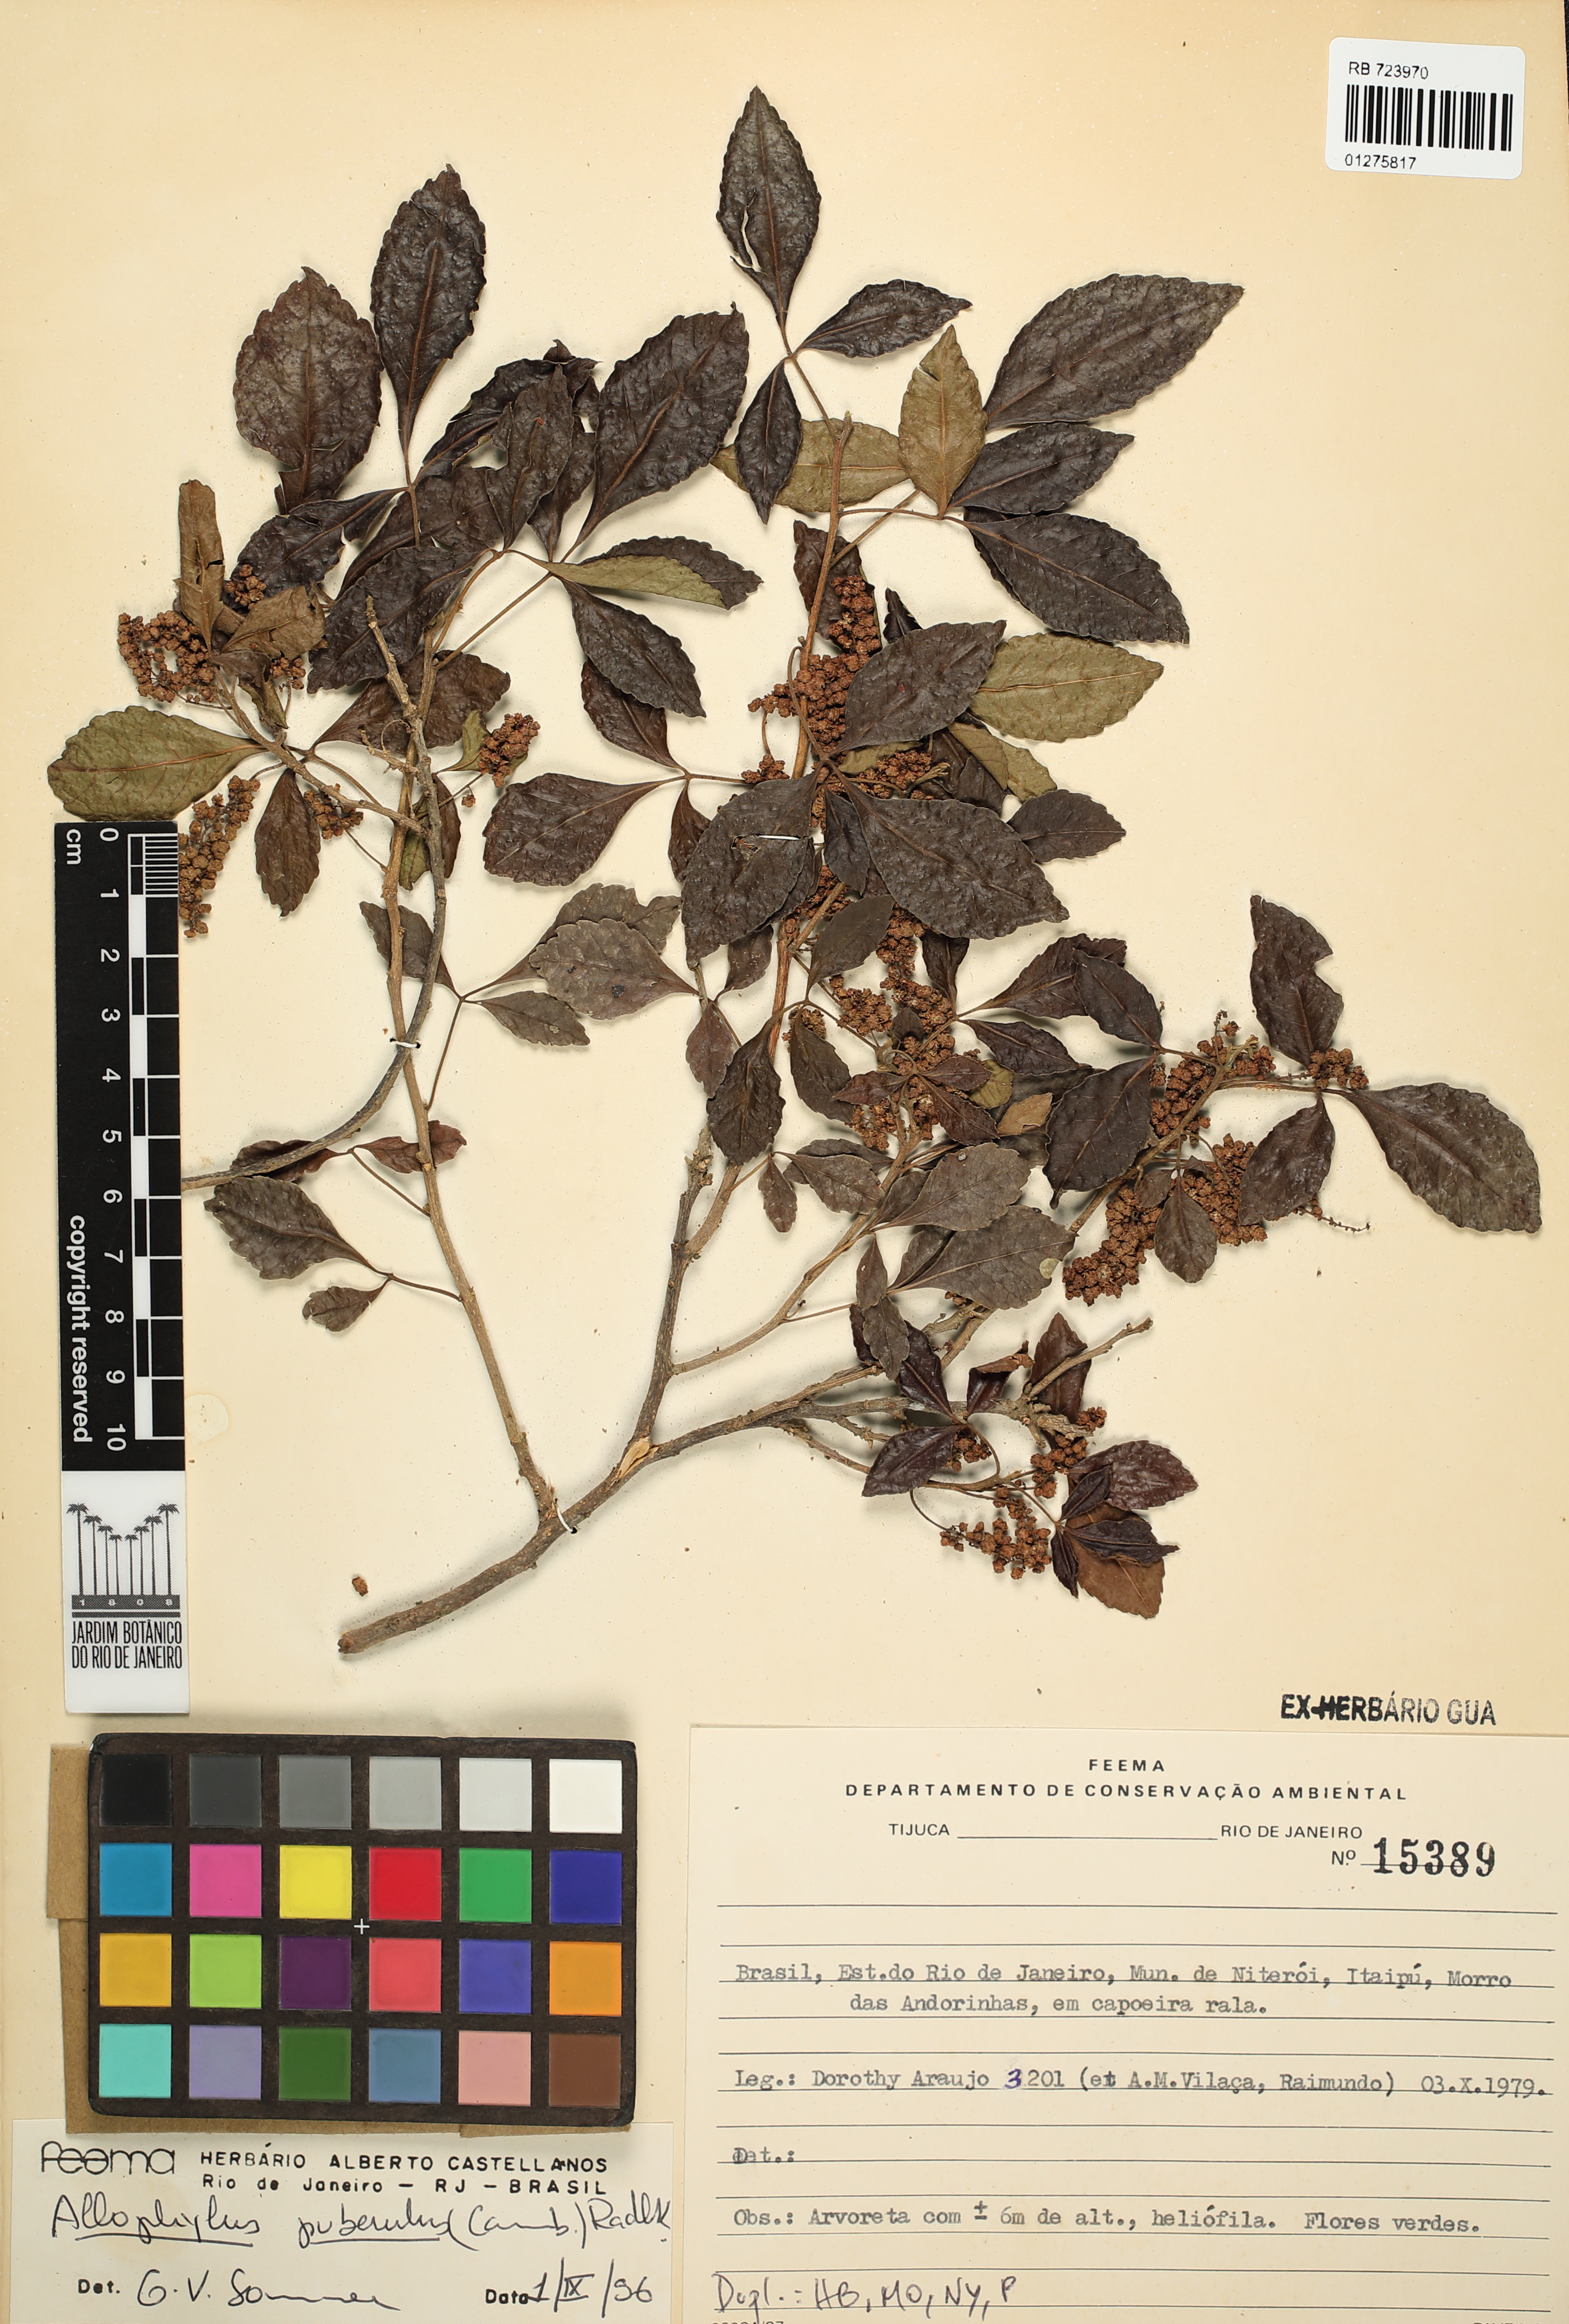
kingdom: Plantae
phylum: Tracheophyta
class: Magnoliopsida
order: Sapindales
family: Sapindaceae
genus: Allophylus
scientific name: Allophylus puberulus
